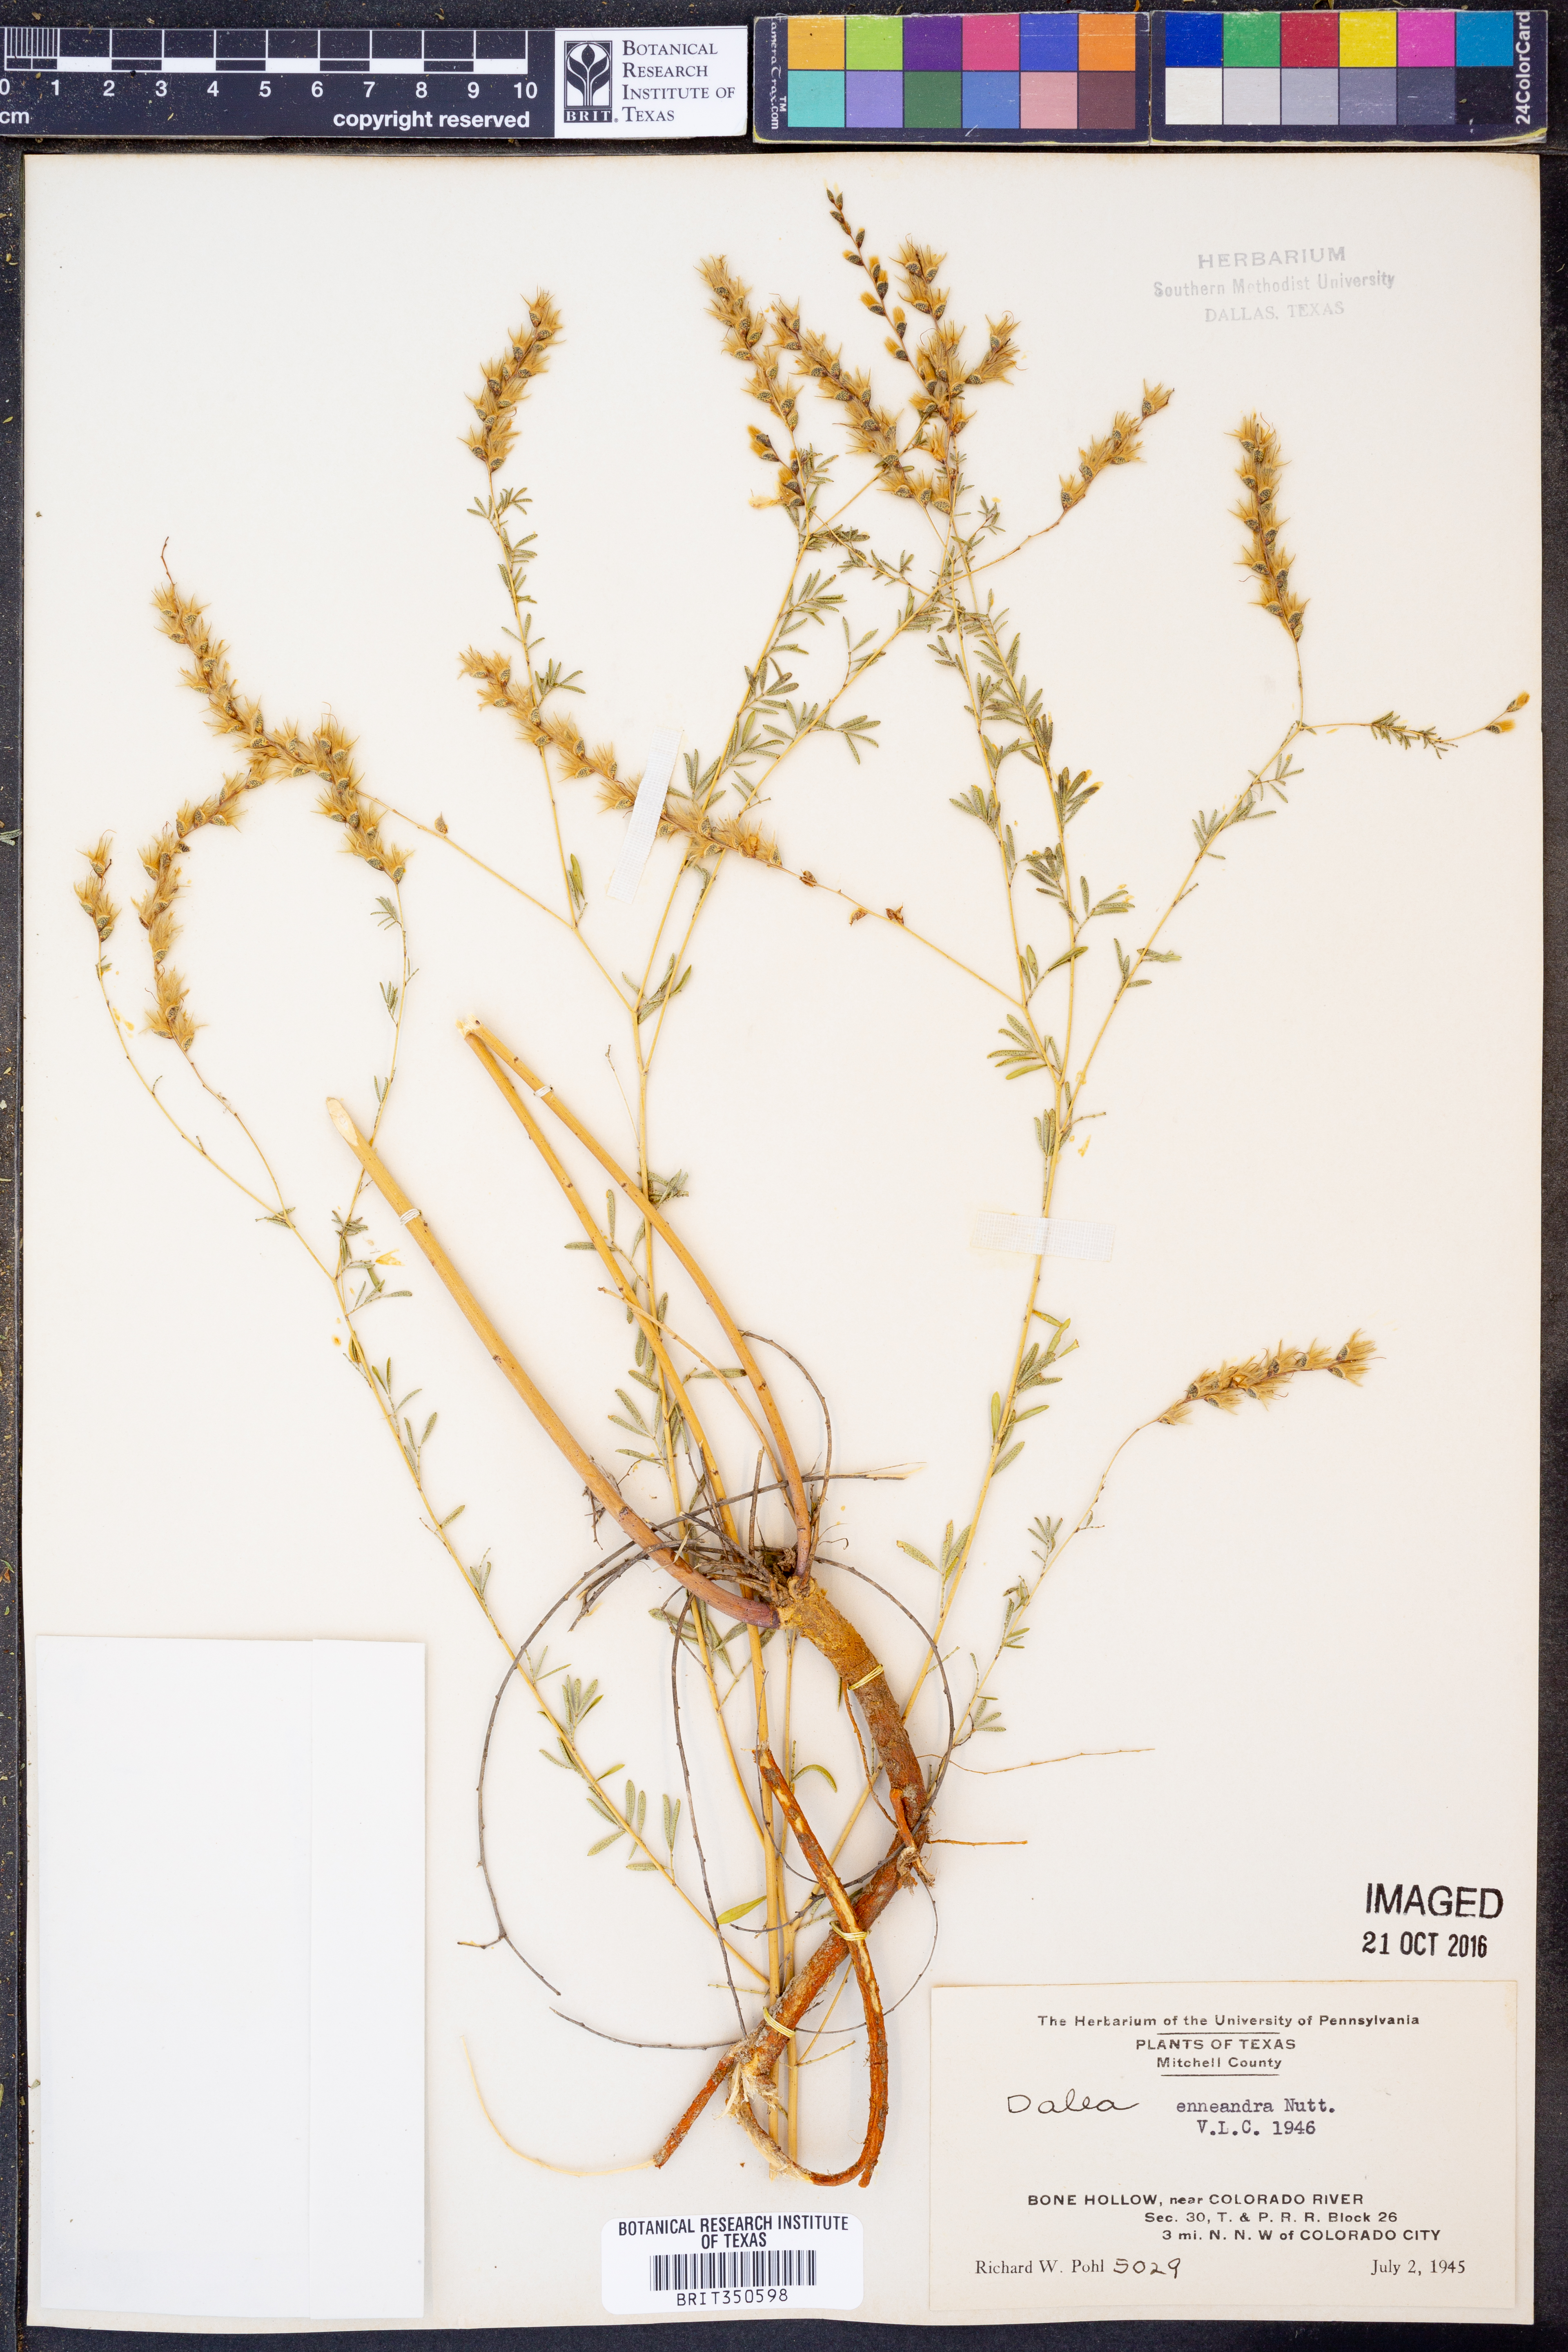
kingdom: Plantae
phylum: Tracheophyta
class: Magnoliopsida
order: Fabales
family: Fabaceae
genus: Dalea
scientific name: Dalea enneandra
